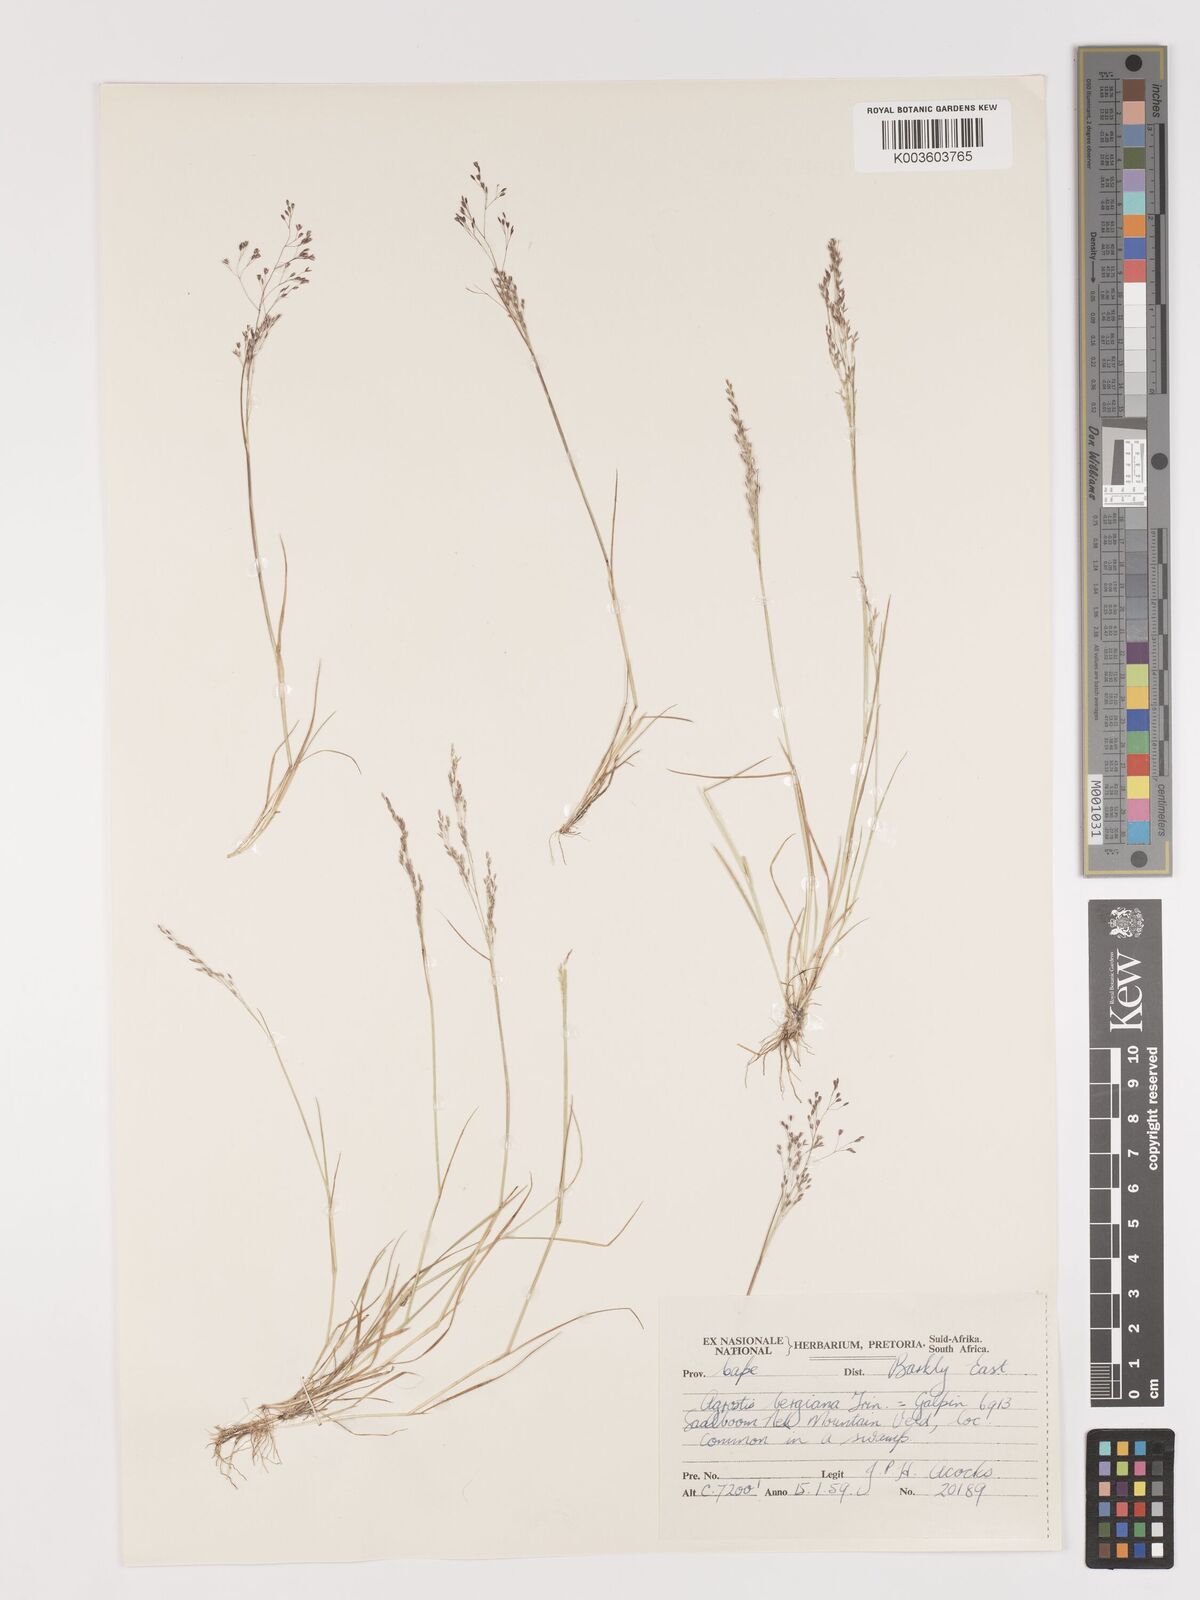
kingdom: Plantae
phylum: Tracheophyta
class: Liliopsida
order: Poales
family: Poaceae
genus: Agrostis
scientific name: Agrostis subulifolia
